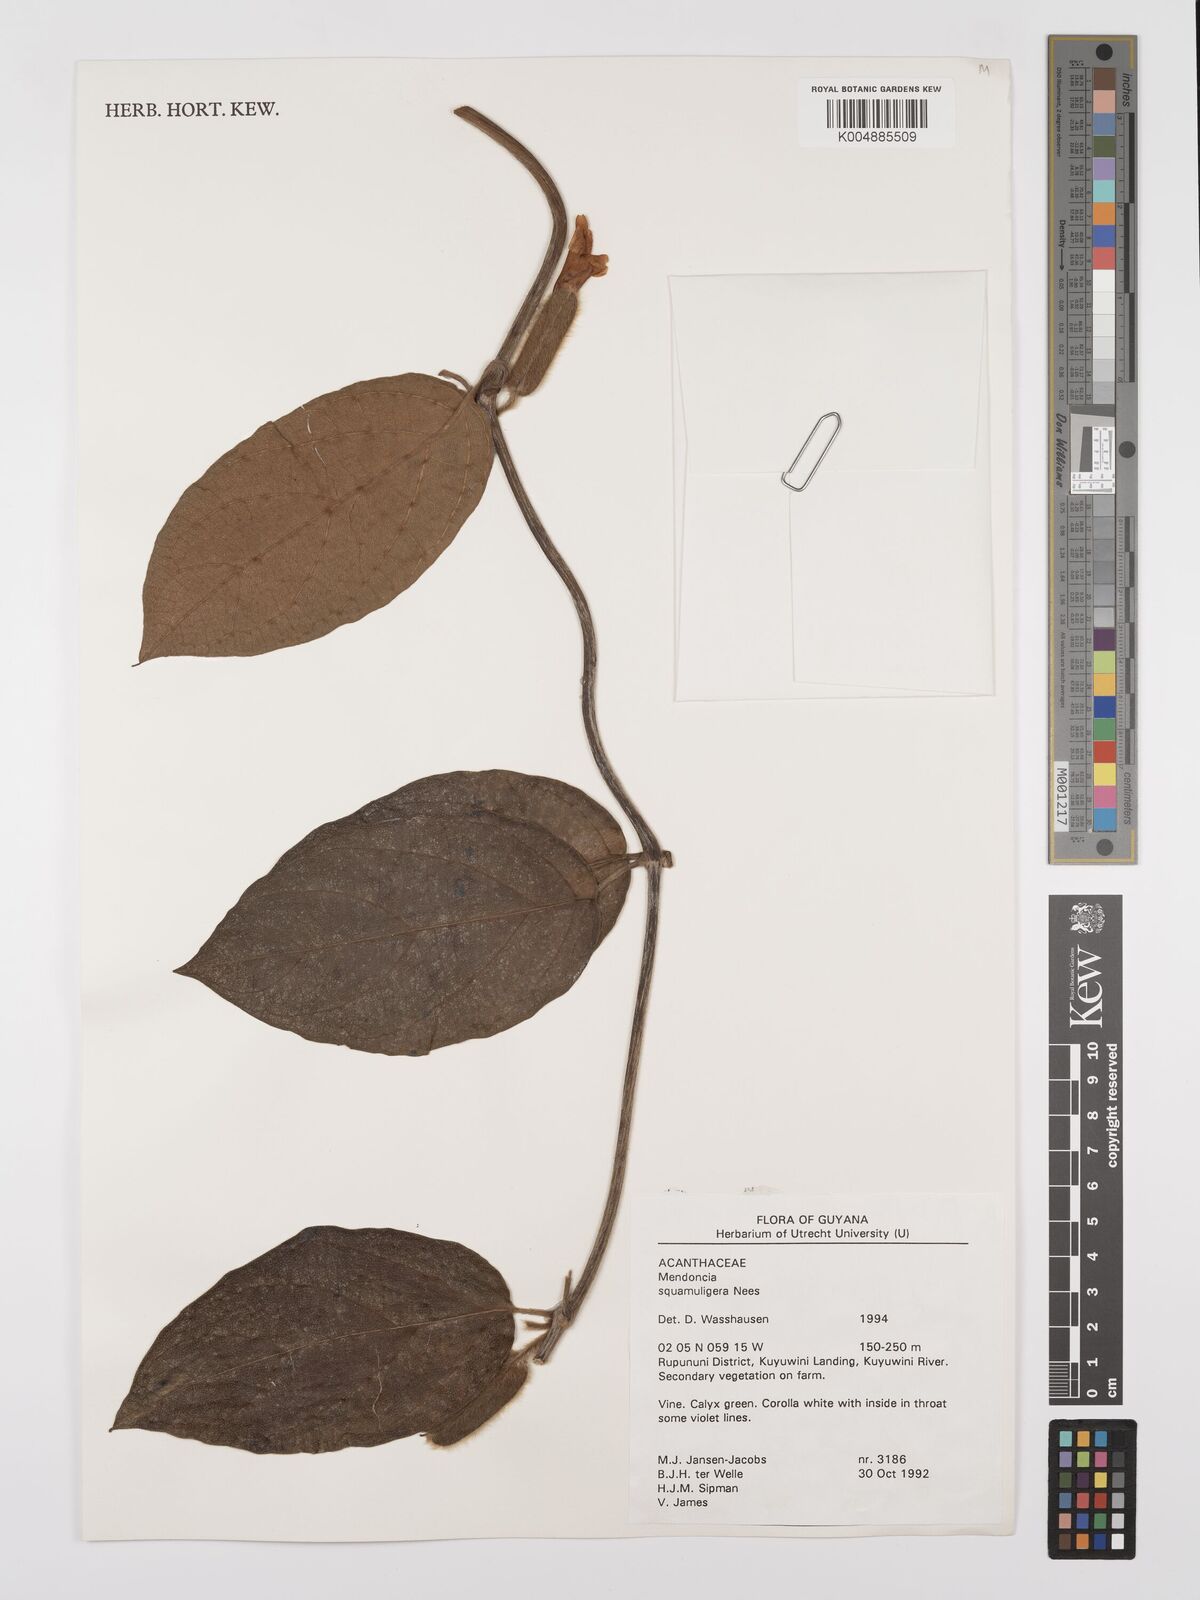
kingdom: Plantae
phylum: Tracheophyta
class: Magnoliopsida
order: Lamiales
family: Acanthaceae
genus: Mendoncia
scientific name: Mendoncia squamuligera
